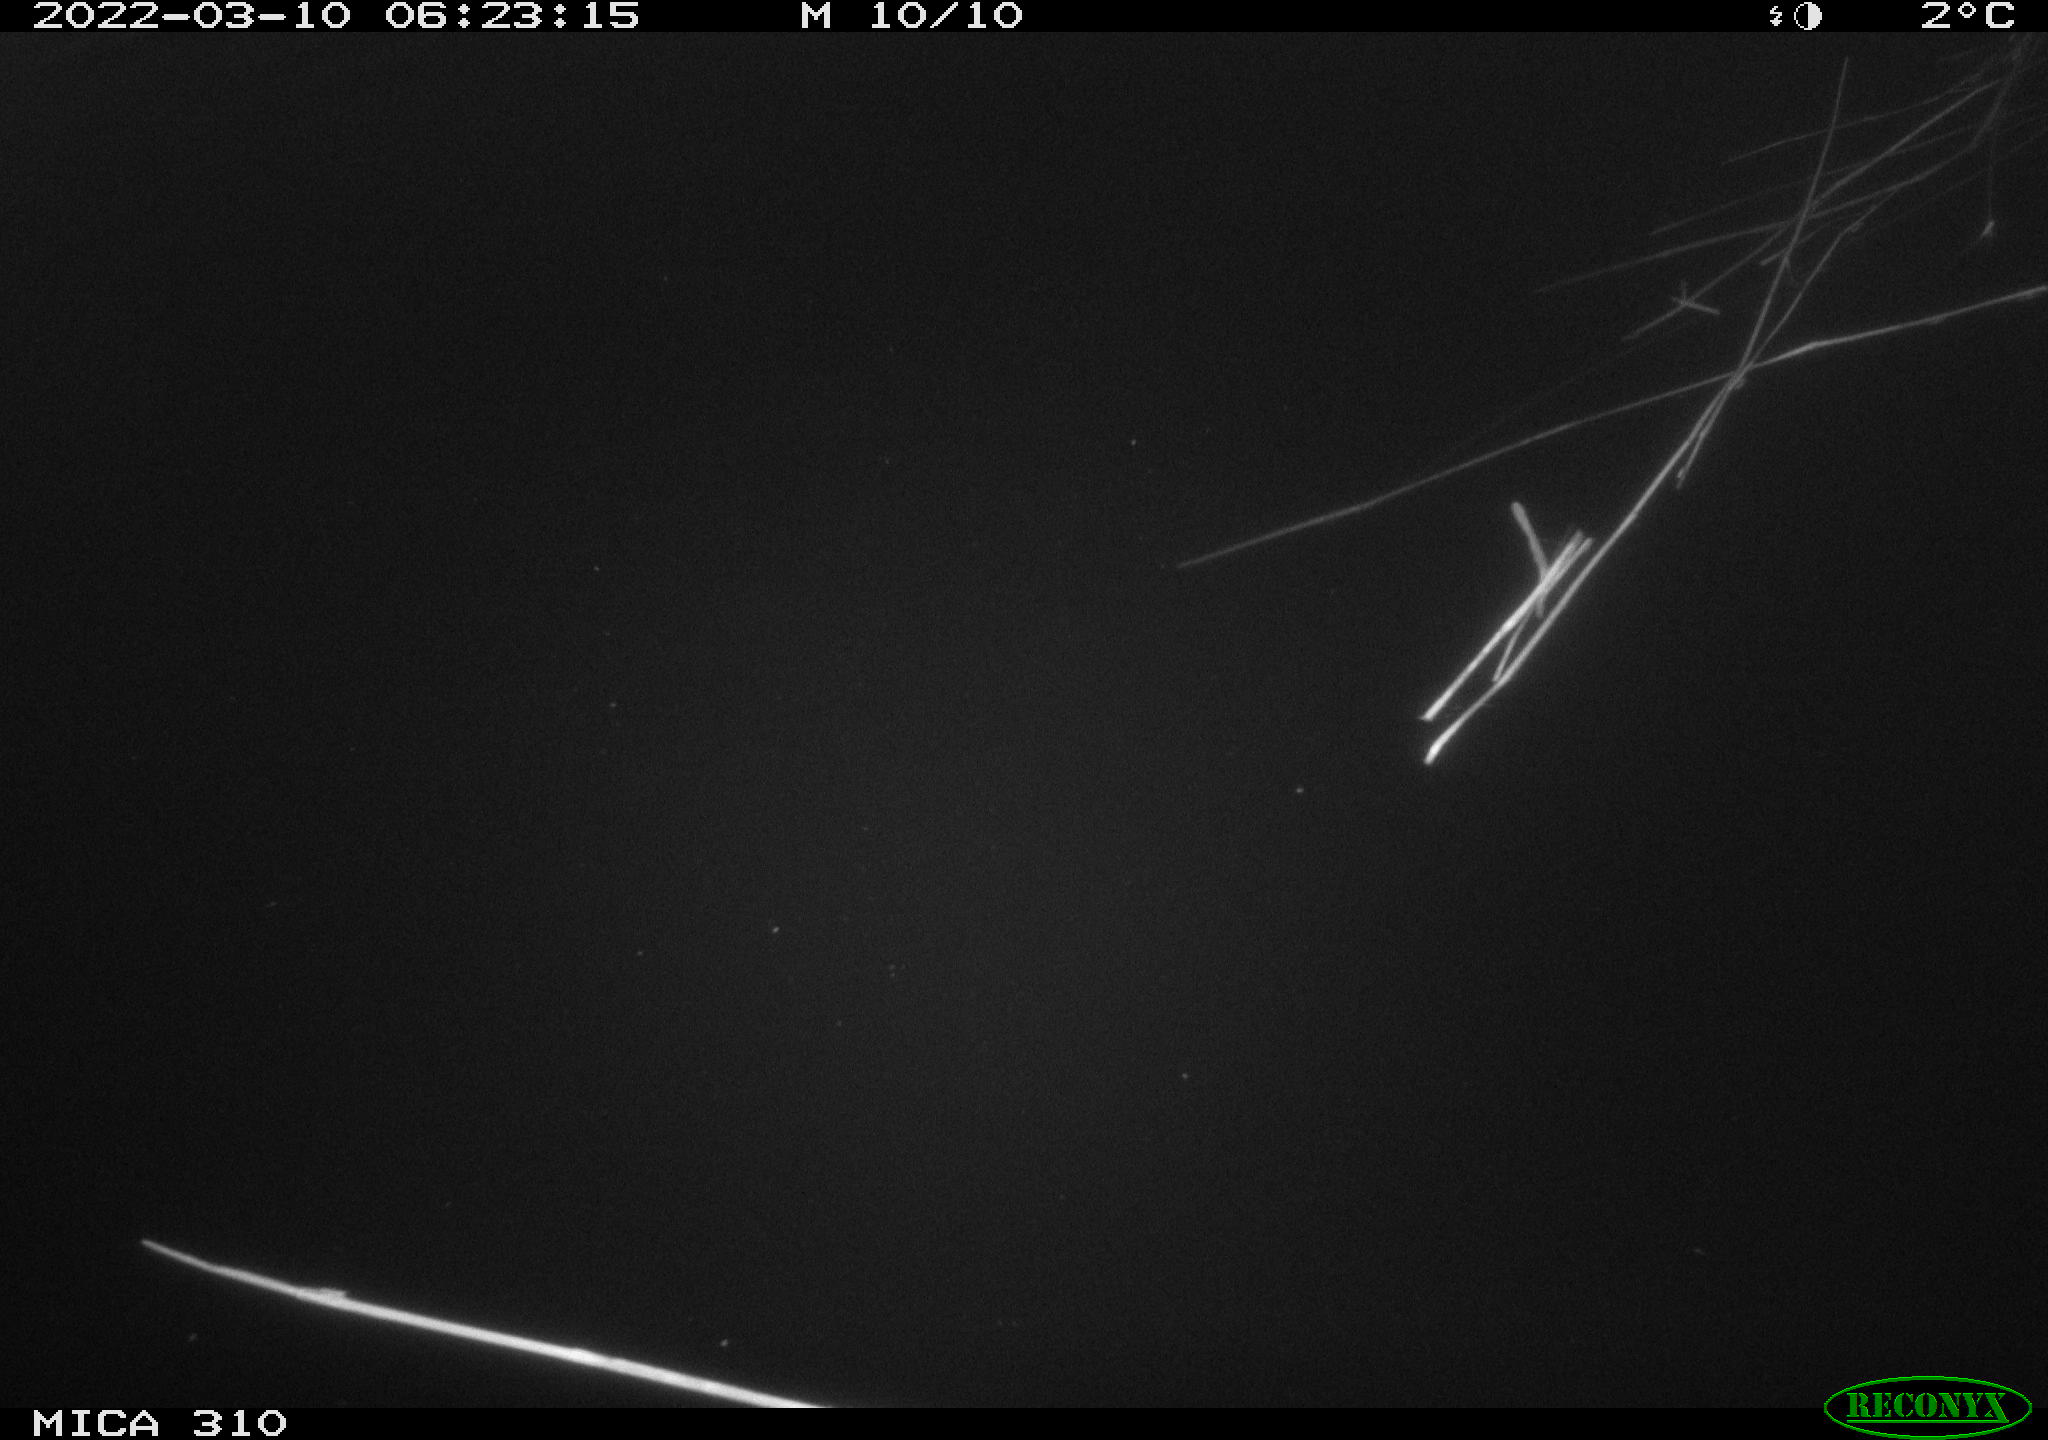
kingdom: Animalia
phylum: Chordata
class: Aves
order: Anseriformes
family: Anatidae
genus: Anas
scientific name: Anas platyrhynchos
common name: Mallard
